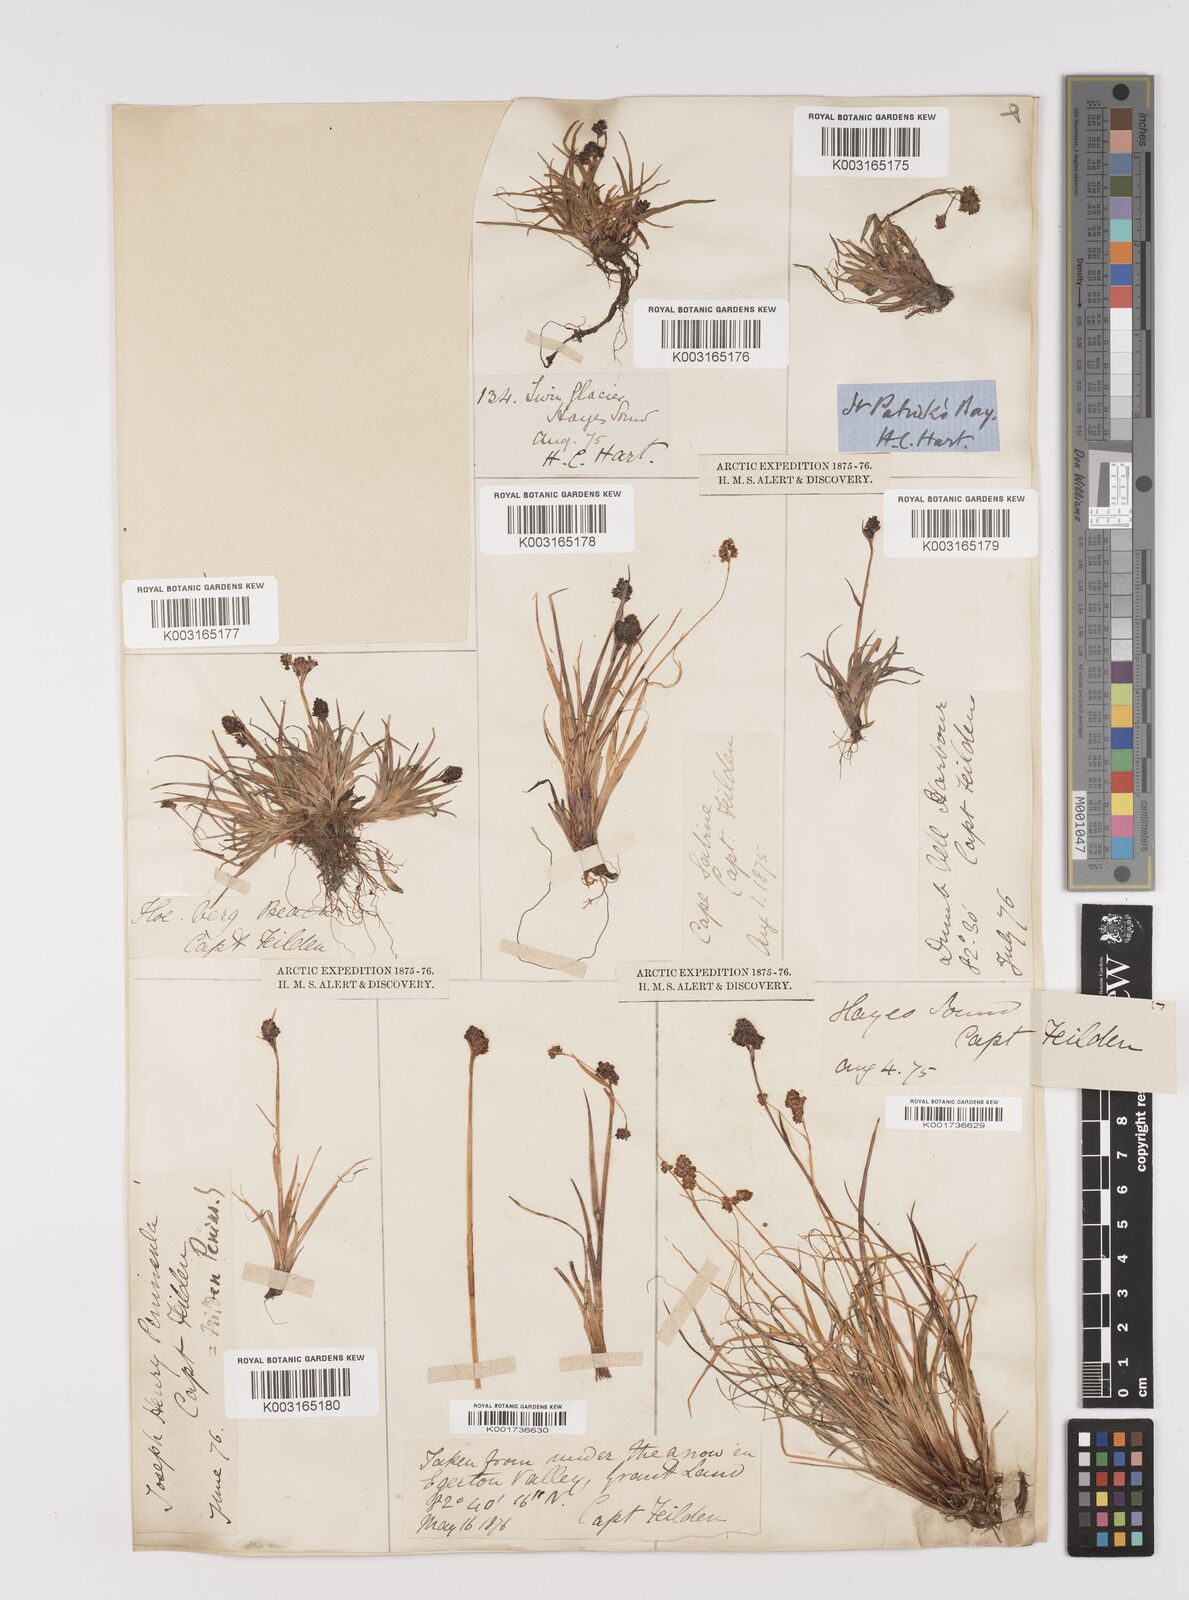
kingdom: Plantae
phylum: Tracheophyta
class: Liliopsida
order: Poales
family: Juncaceae
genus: Luzula
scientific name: Luzula
